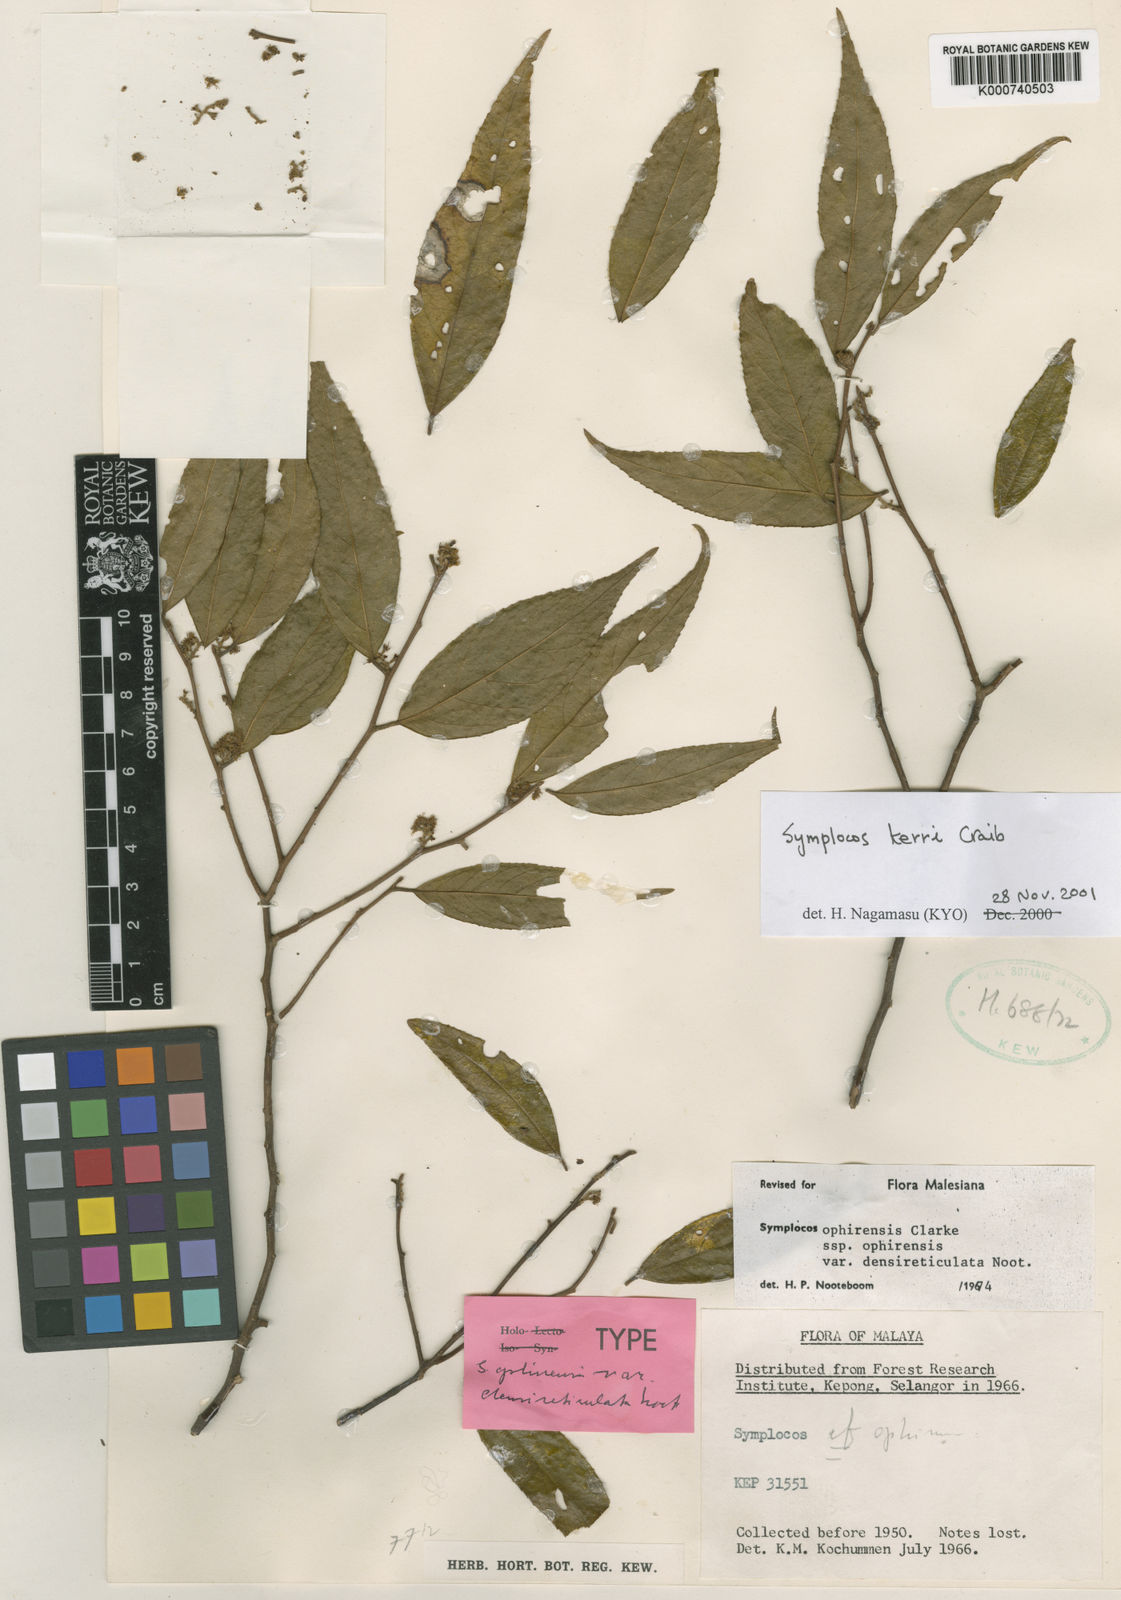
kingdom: Plantae
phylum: Tracheophyta
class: Magnoliopsida
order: Ericales
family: Symplocaceae
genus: Symplocos
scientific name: Symplocos ophirensis
